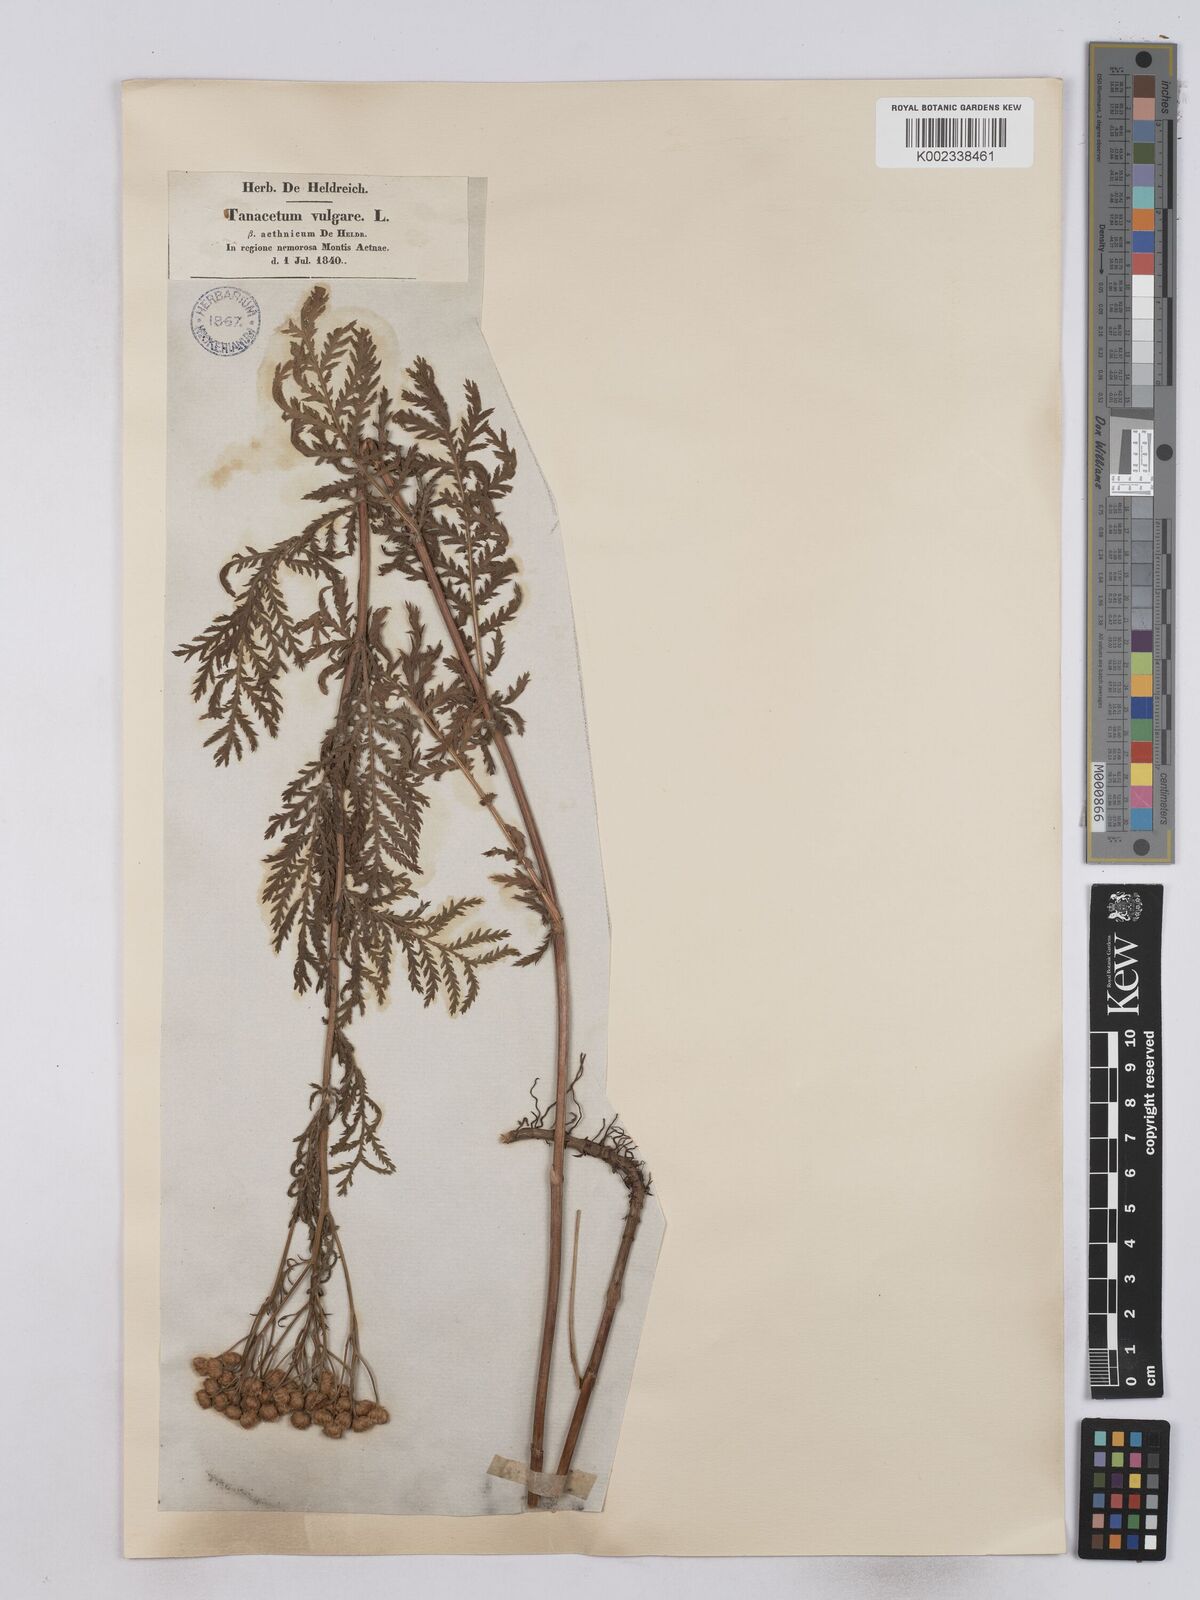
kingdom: Plantae
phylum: Tracheophyta
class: Magnoliopsida
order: Asterales
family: Asteraceae
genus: Tanacetum
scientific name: Tanacetum vulgare
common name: Common tansy
